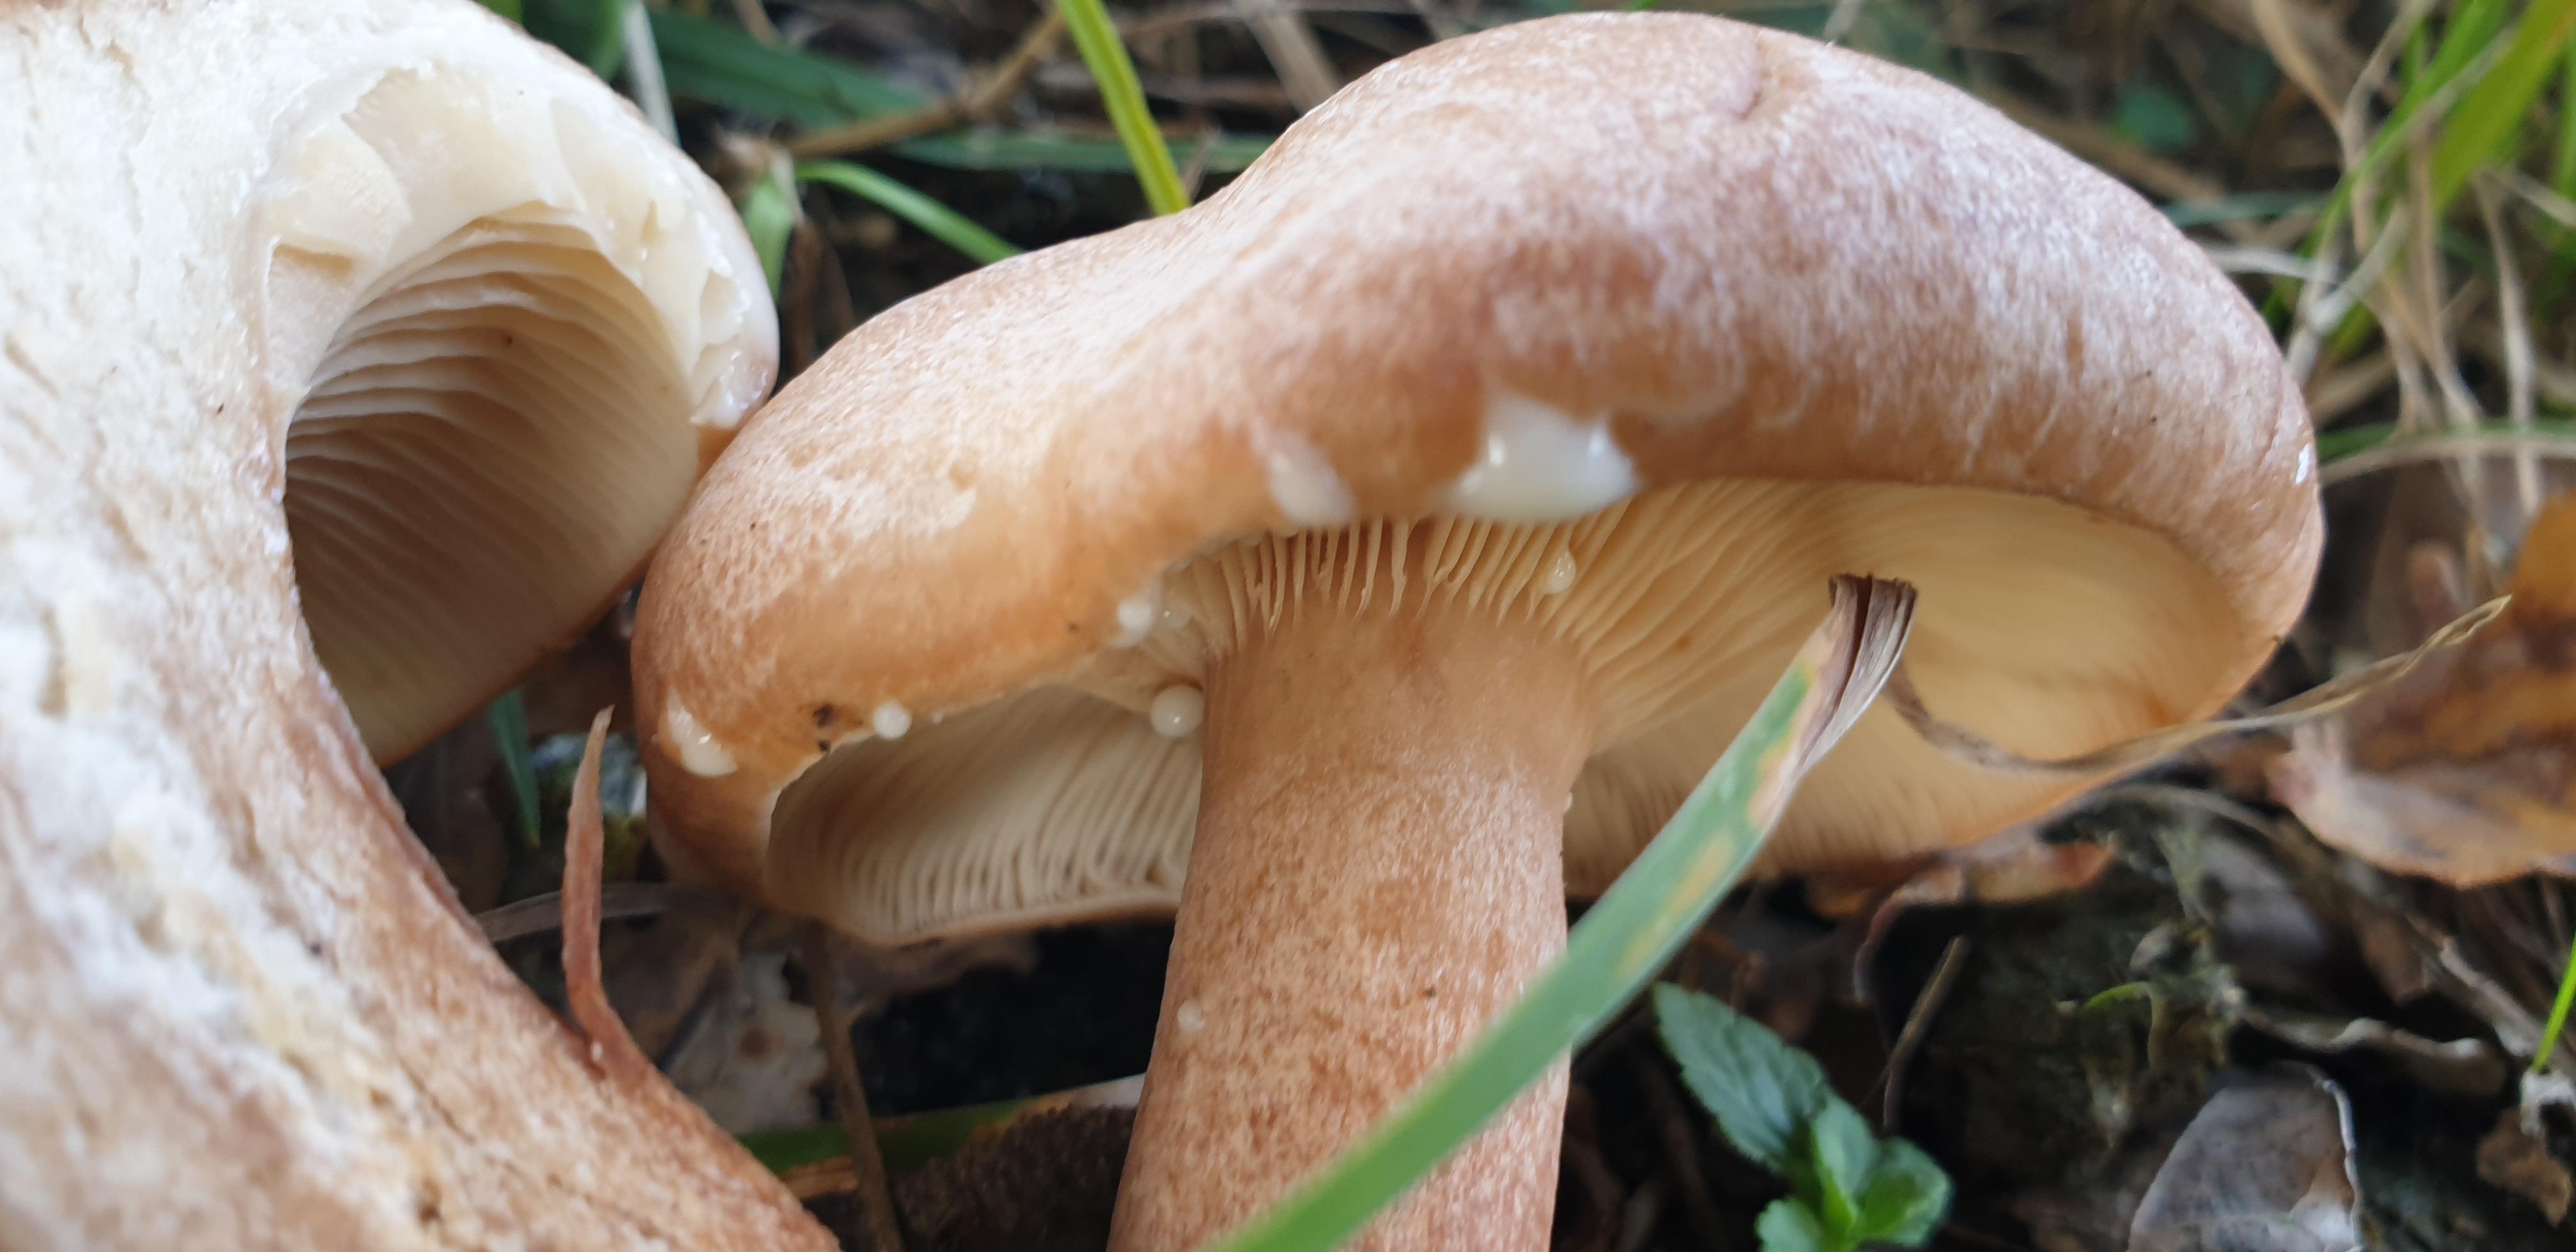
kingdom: Fungi
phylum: Basidiomycota
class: Agaricomycetes
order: Russulales
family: Russulaceae
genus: Lactarius
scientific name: Lactarius quietus
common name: ege-mælkehat
